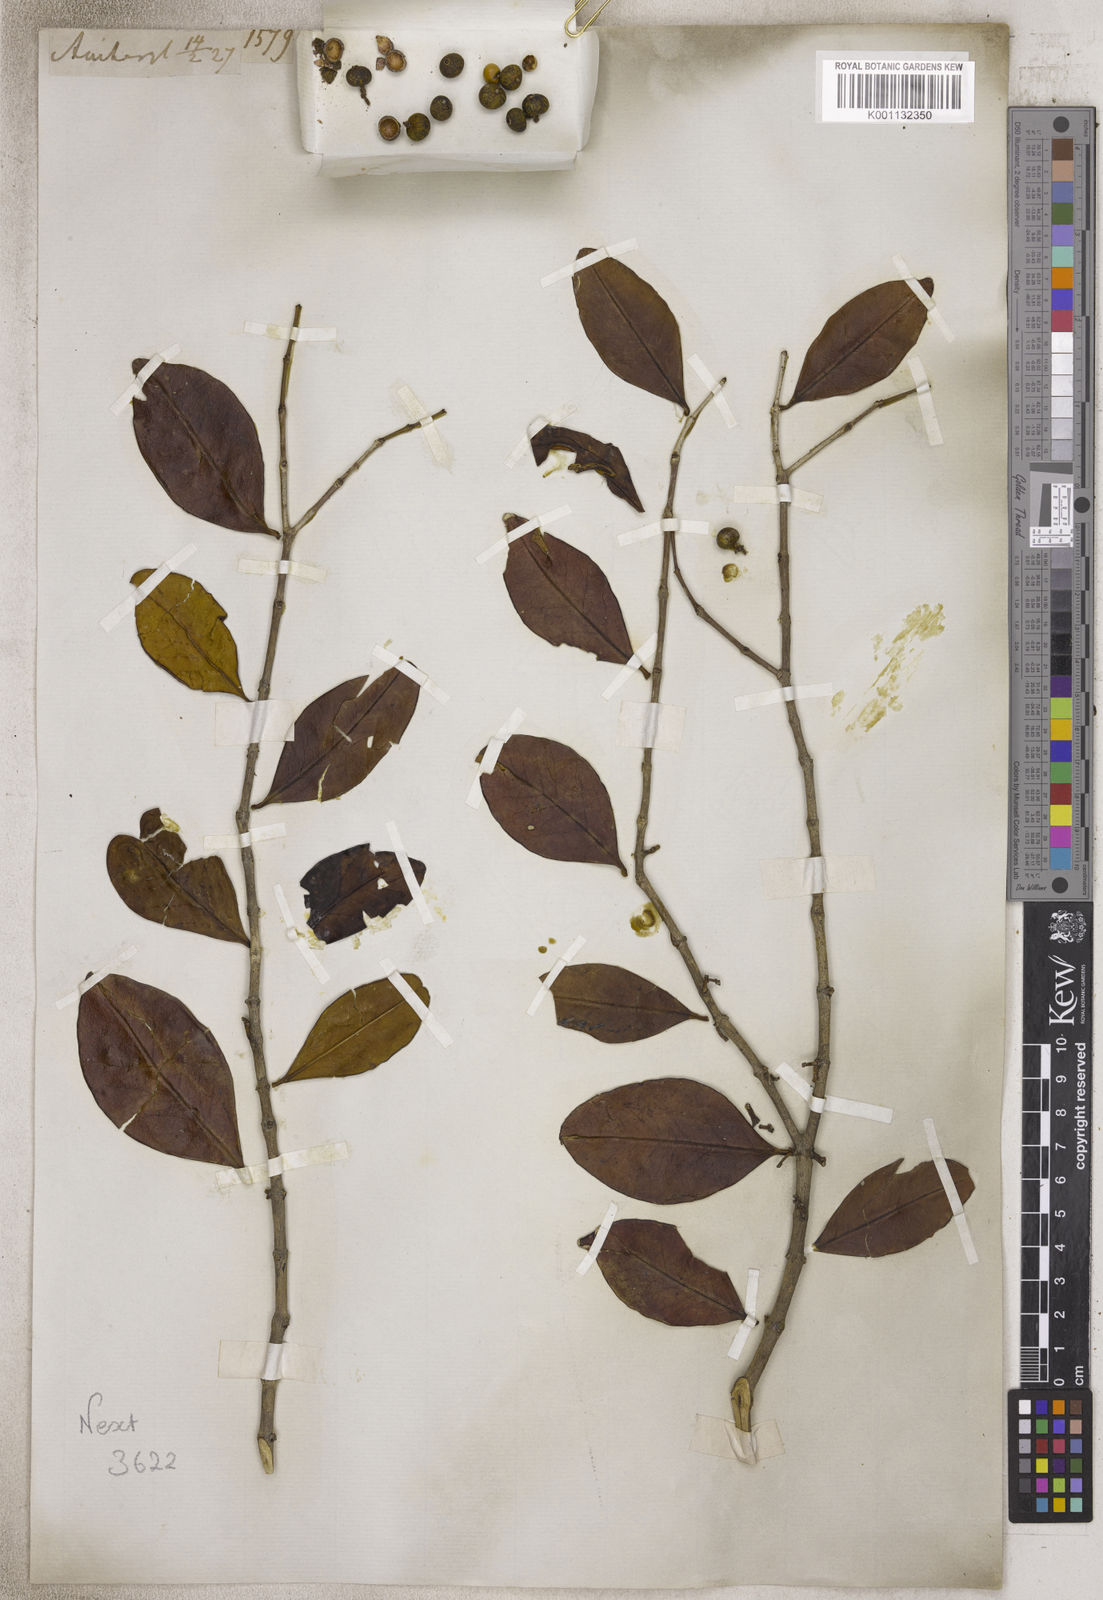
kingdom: Plantae
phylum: Tracheophyta
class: Magnoliopsida
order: Myrtales
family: Myrtaceae
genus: Eugenia
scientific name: Eugenia
